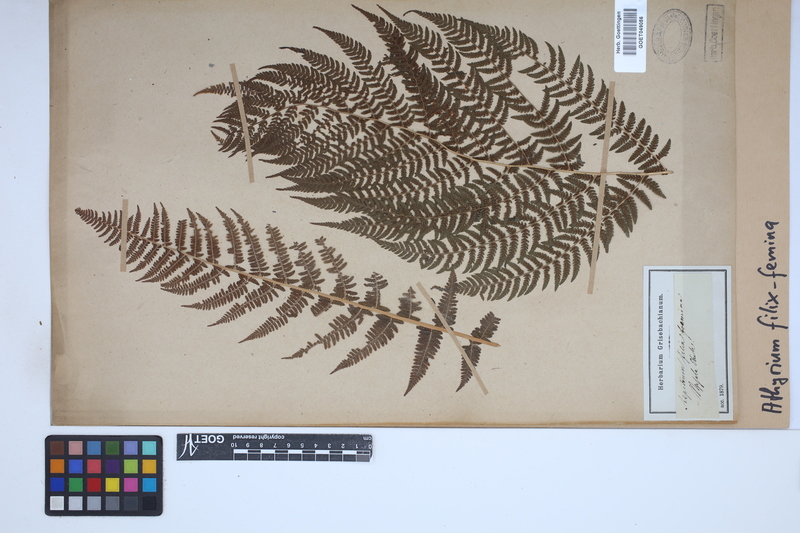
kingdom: Plantae
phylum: Tracheophyta
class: Polypodiopsida
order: Polypodiales
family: Athyriaceae
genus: Athyrium
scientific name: Athyrium filix-femina
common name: Lady fern
